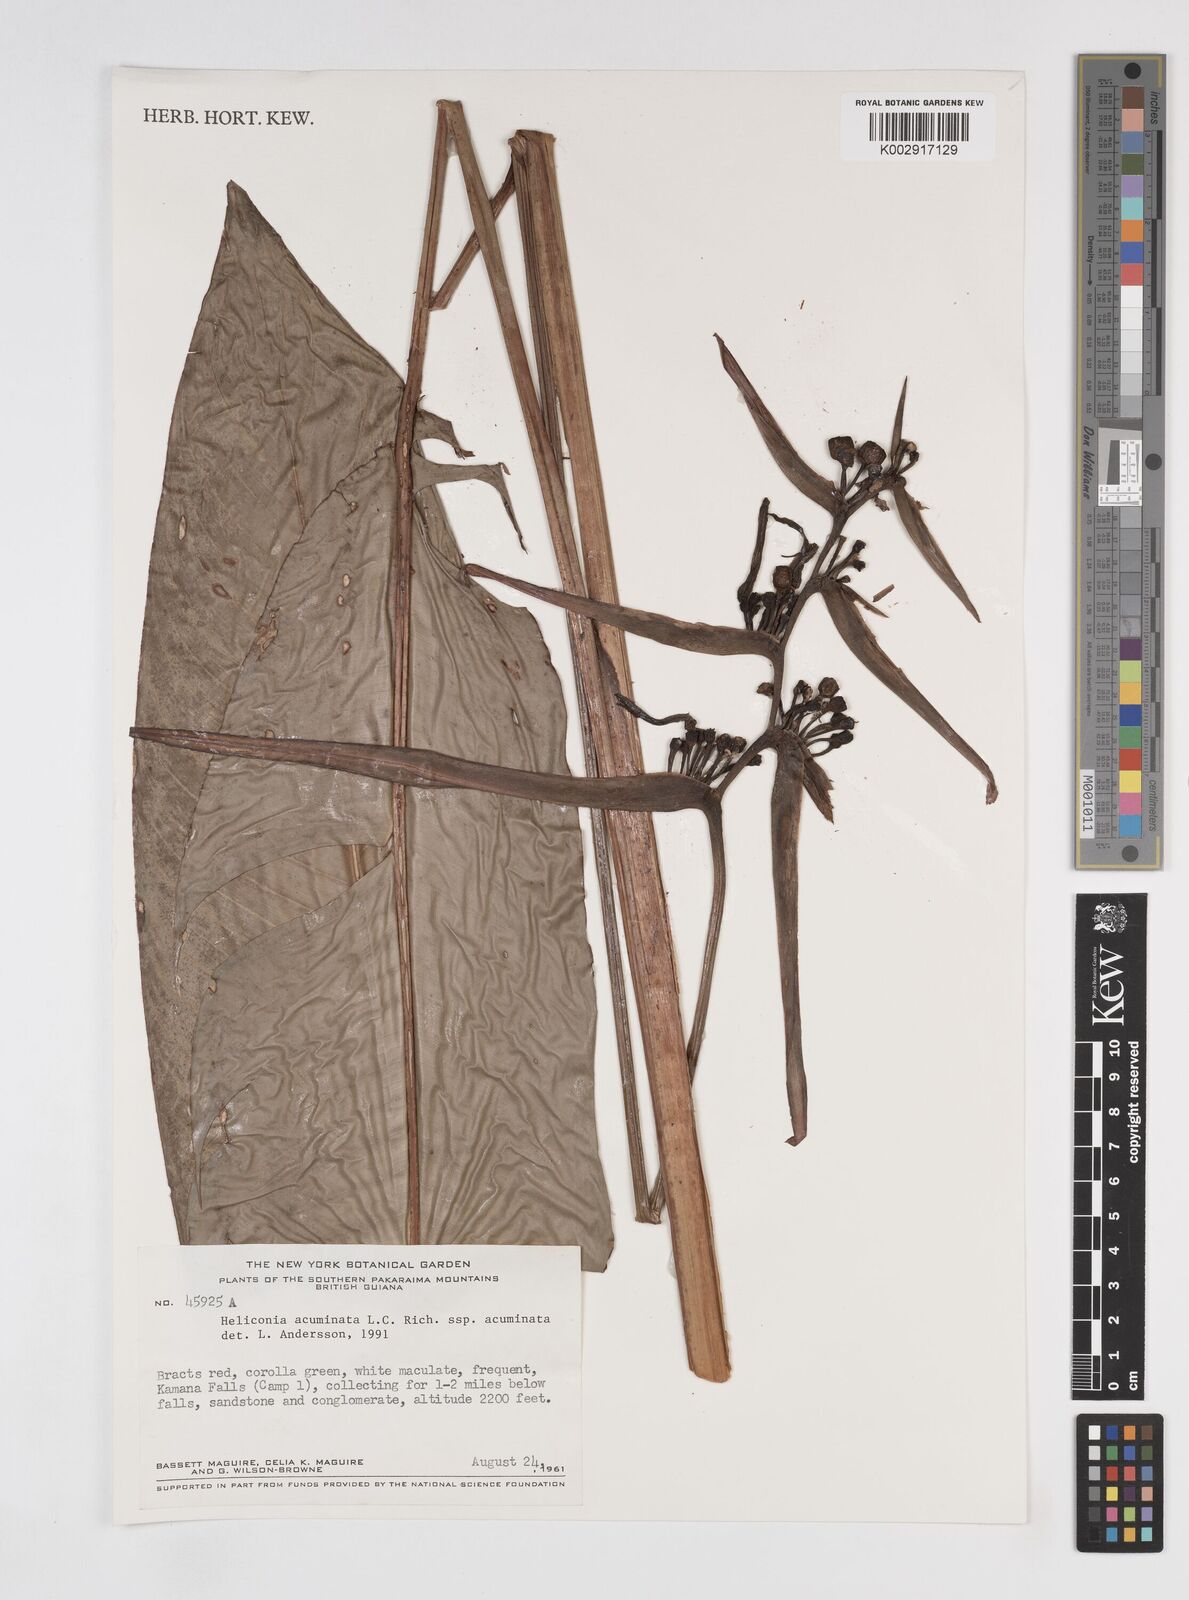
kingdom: Plantae
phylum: Tracheophyta
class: Liliopsida
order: Zingiberales
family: Heliconiaceae
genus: Heliconia
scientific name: Heliconia acuminata
